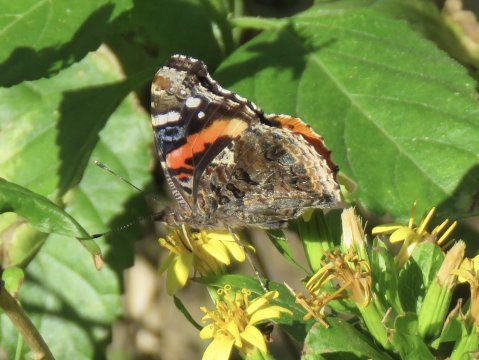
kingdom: Animalia
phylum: Arthropoda
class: Insecta
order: Lepidoptera
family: Nymphalidae
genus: Vanessa
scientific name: Vanessa atalanta
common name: Red Admiral
